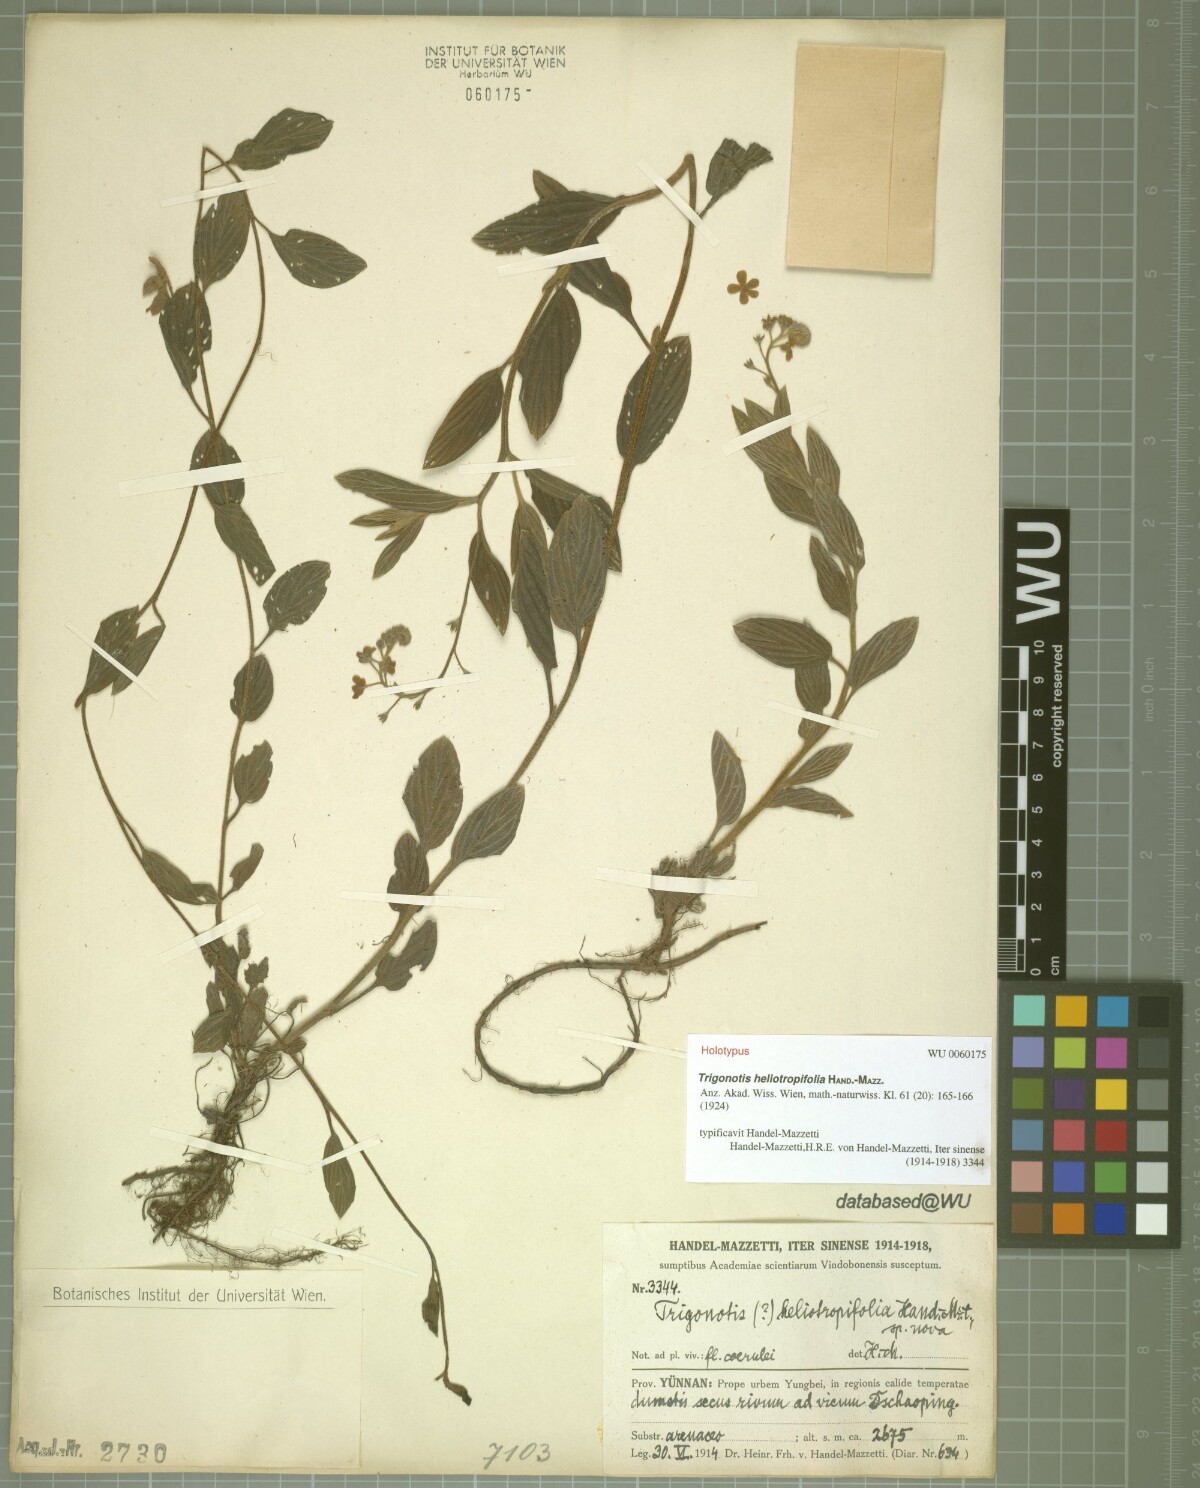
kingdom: Plantae
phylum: Tracheophyta
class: Magnoliopsida
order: Boraginales
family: Boraginaceae
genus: Trigonotis
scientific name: Trigonotis heliotropifolia
